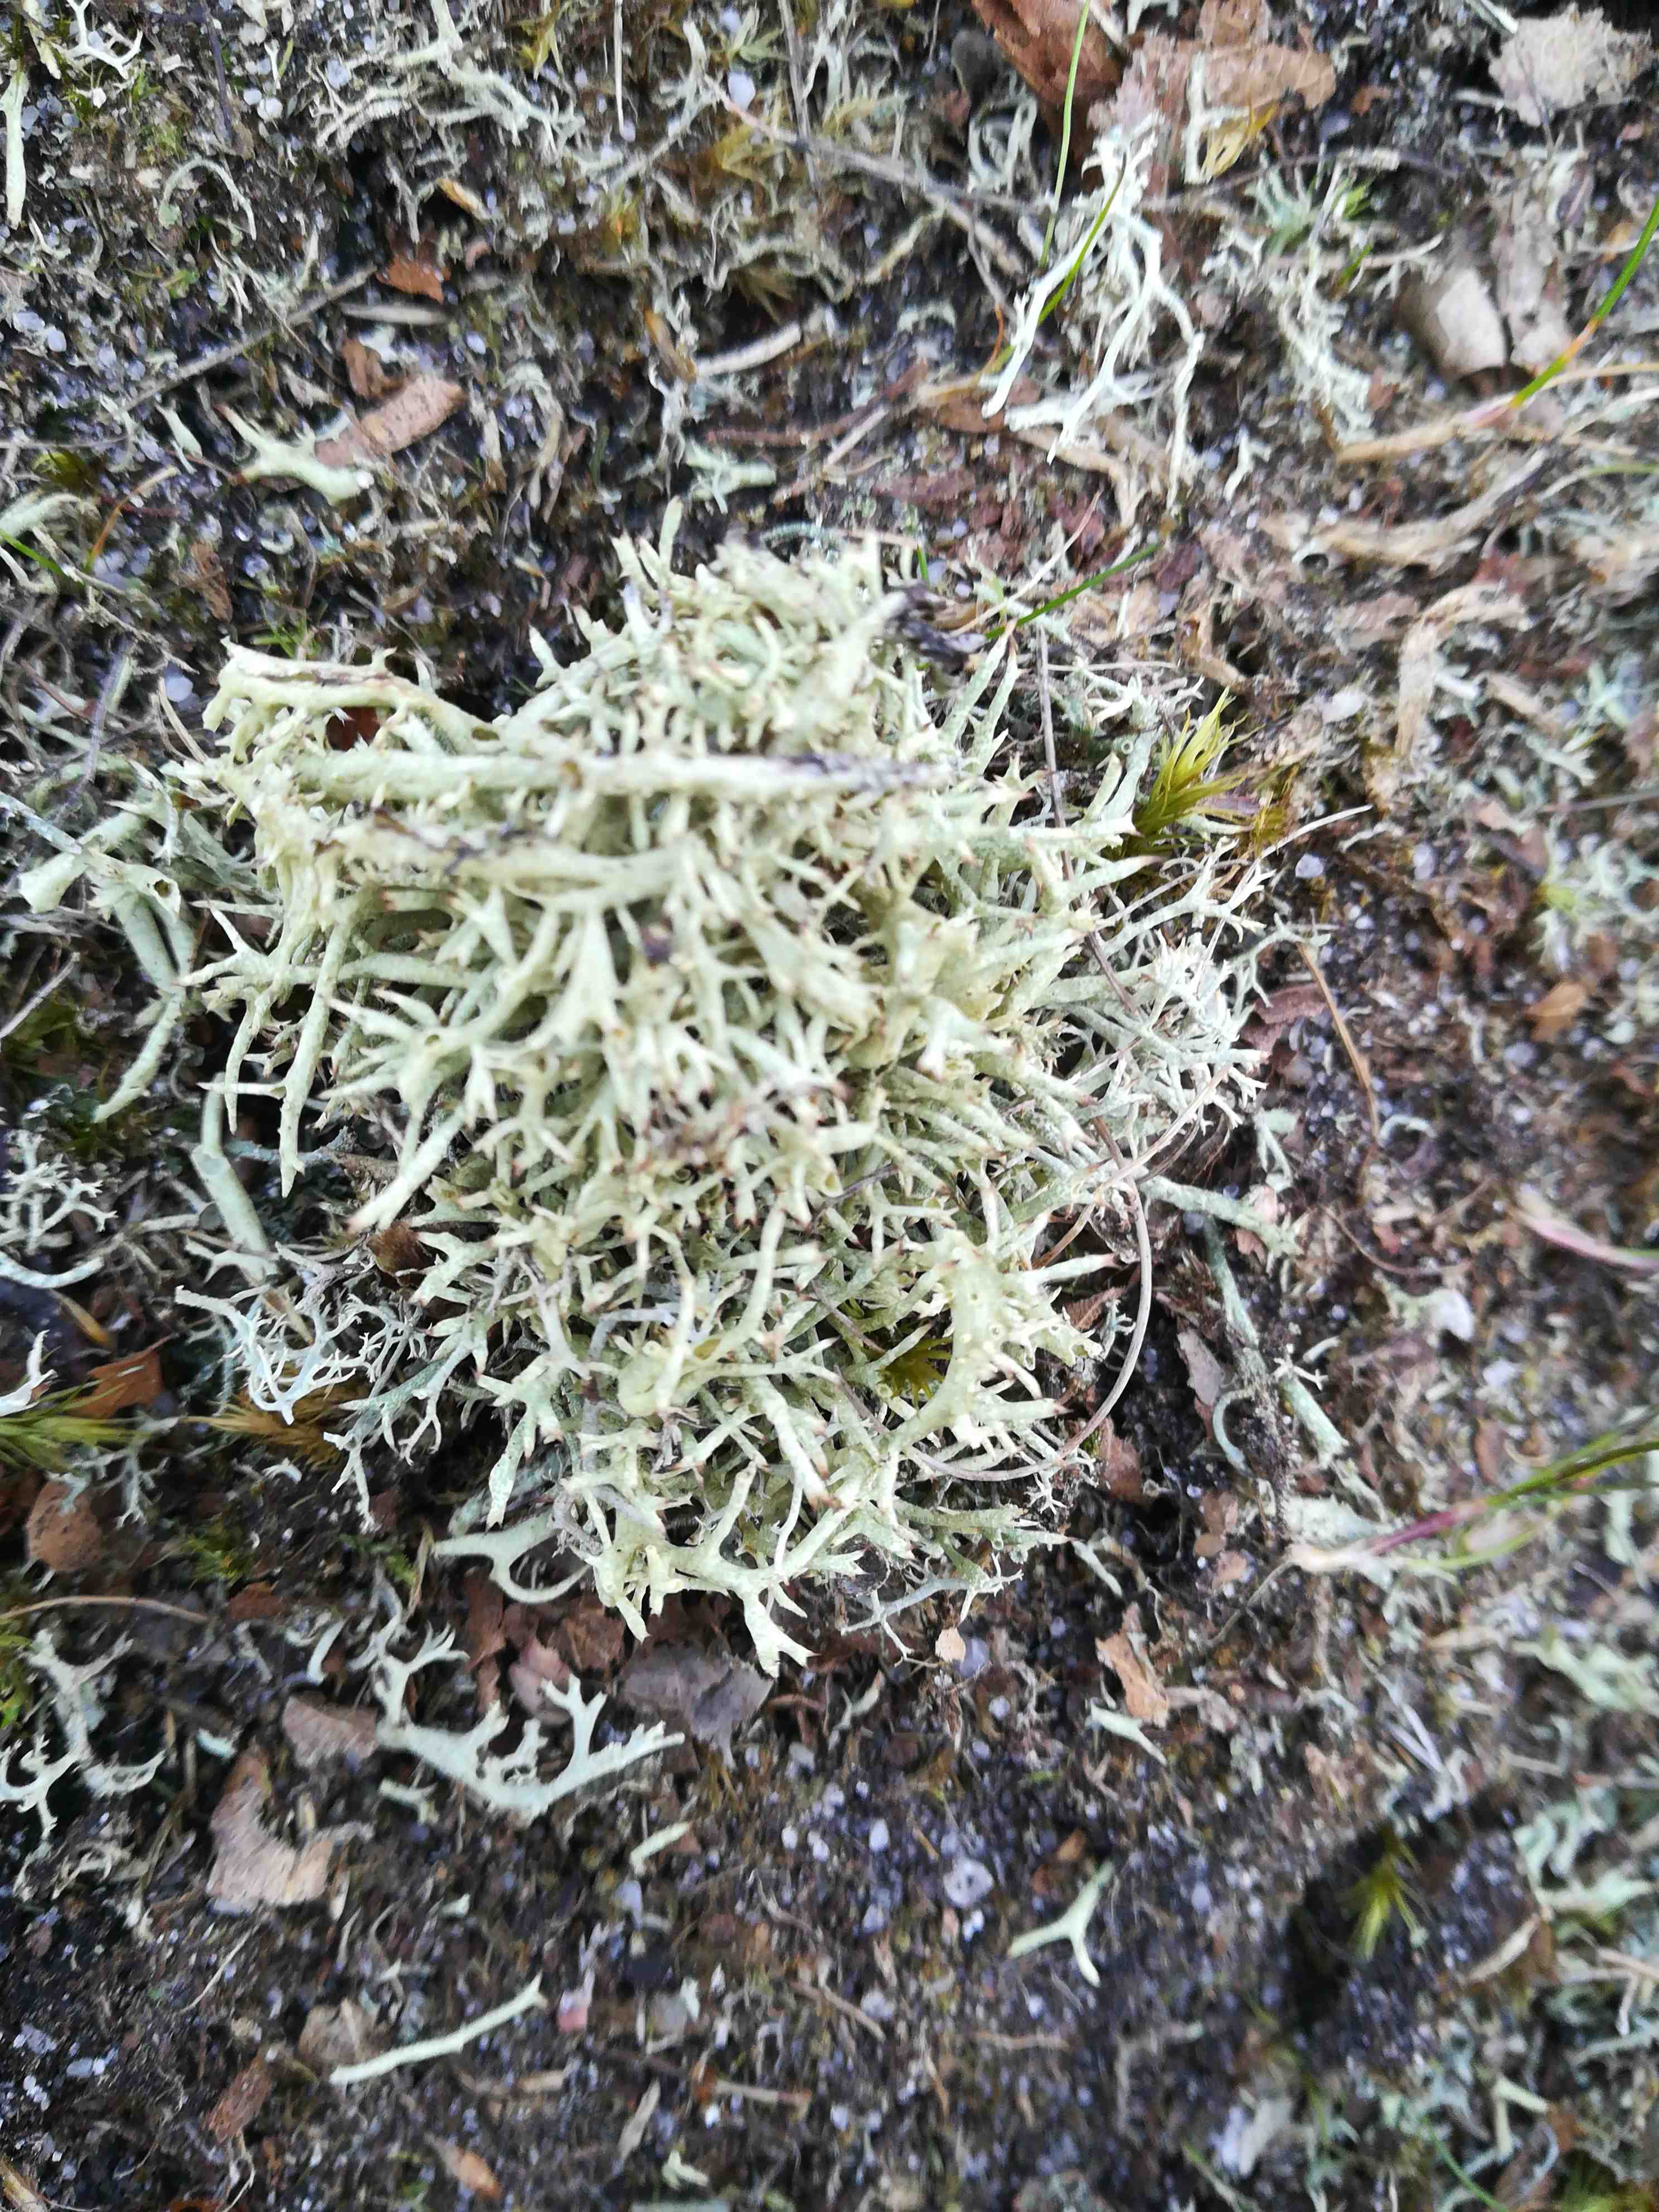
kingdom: Fungi
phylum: Ascomycota
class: Lecanoromycetes
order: Lecanorales
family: Cladoniaceae
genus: Cladonia
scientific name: Cladonia
